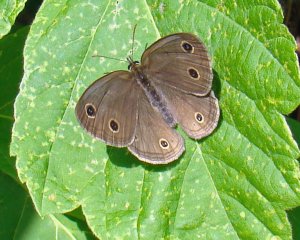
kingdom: Animalia
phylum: Arthropoda
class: Insecta
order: Lepidoptera
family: Nymphalidae
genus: Euptychia
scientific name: Euptychia cymela
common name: Little Wood Satyr
